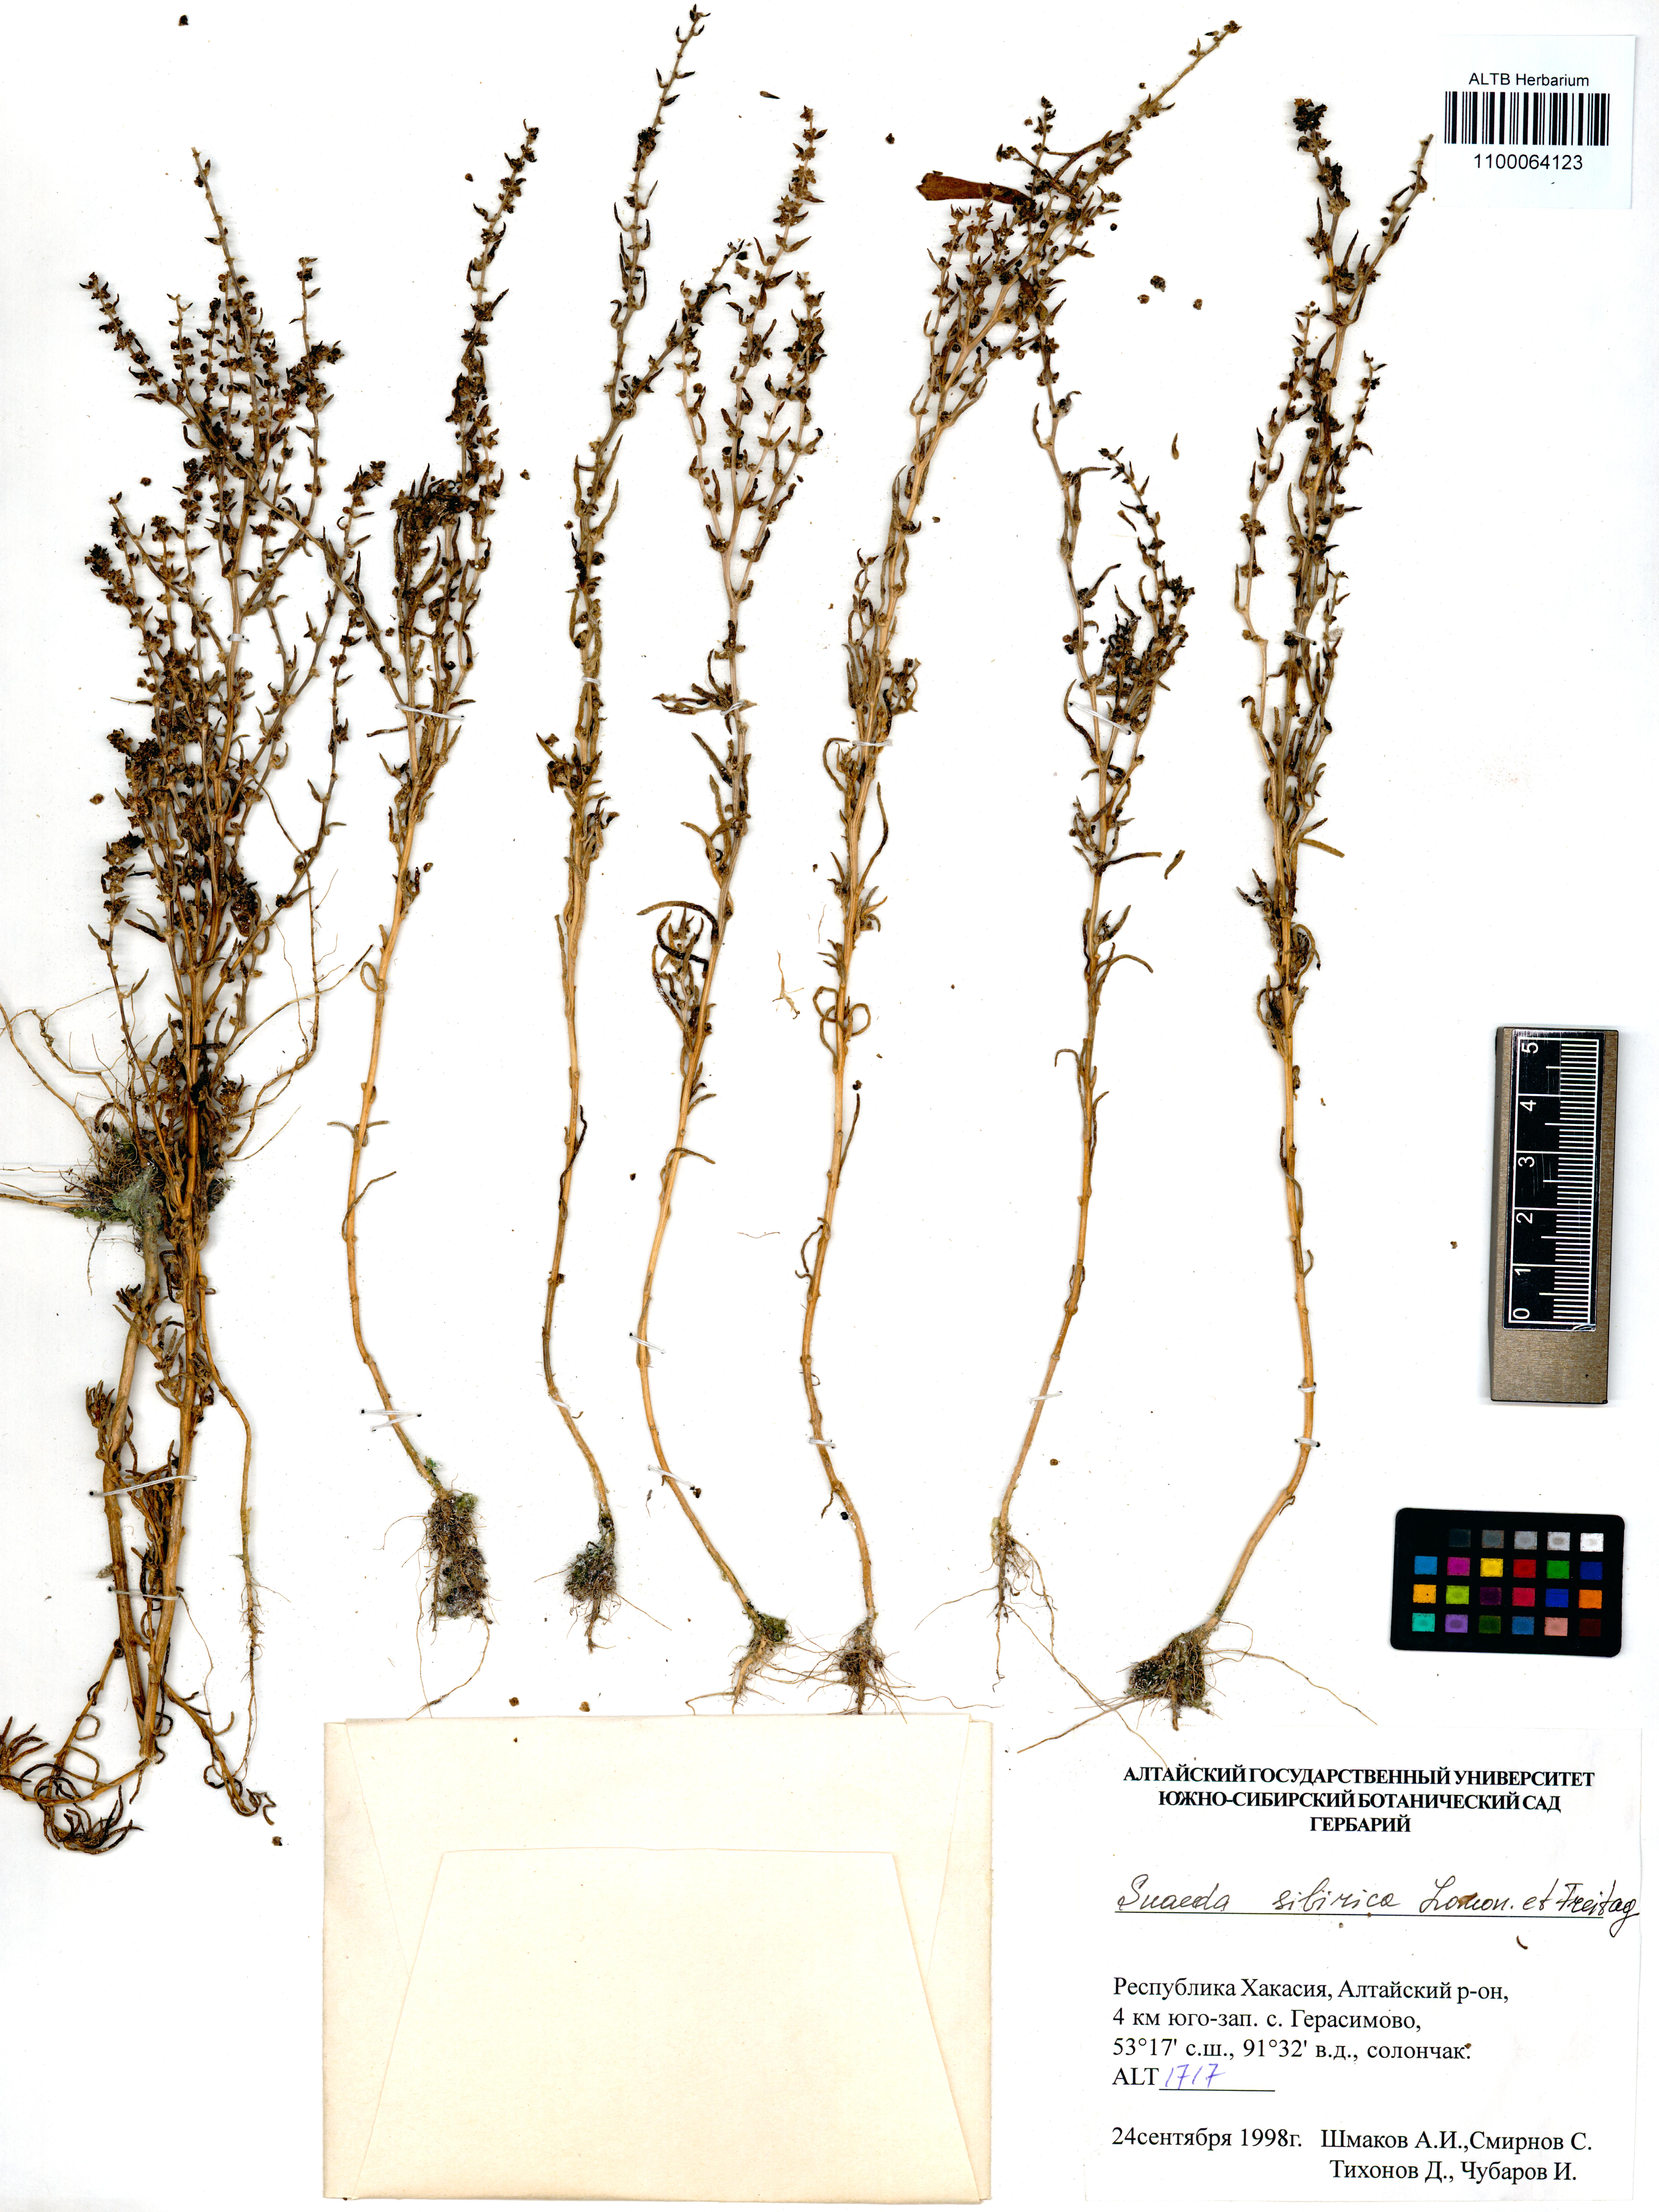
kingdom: Plantae
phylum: Tracheophyta
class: Magnoliopsida
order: Caryophyllales
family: Amaranthaceae
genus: Suaeda
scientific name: Suaeda sibirica
